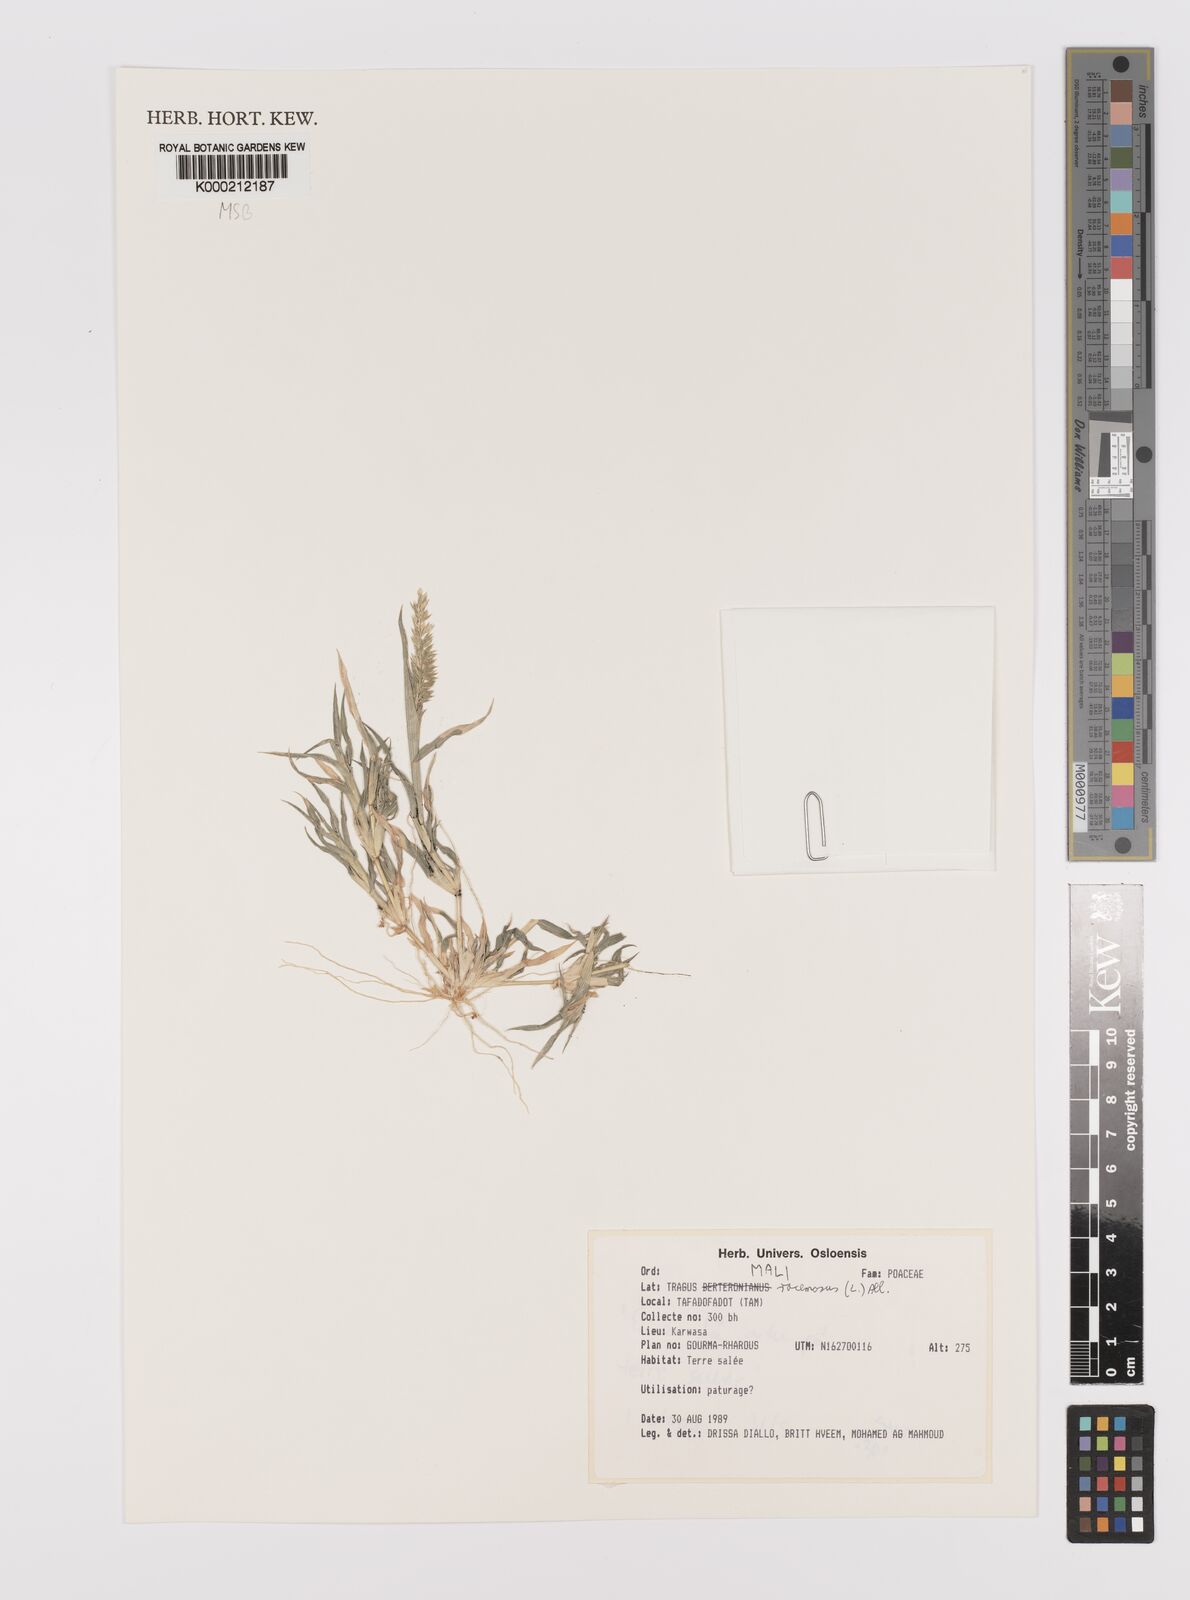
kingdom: Plantae
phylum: Tracheophyta
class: Liliopsida
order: Poales
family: Poaceae
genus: Tragus
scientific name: Tragus racemosus
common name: European bur-grass
